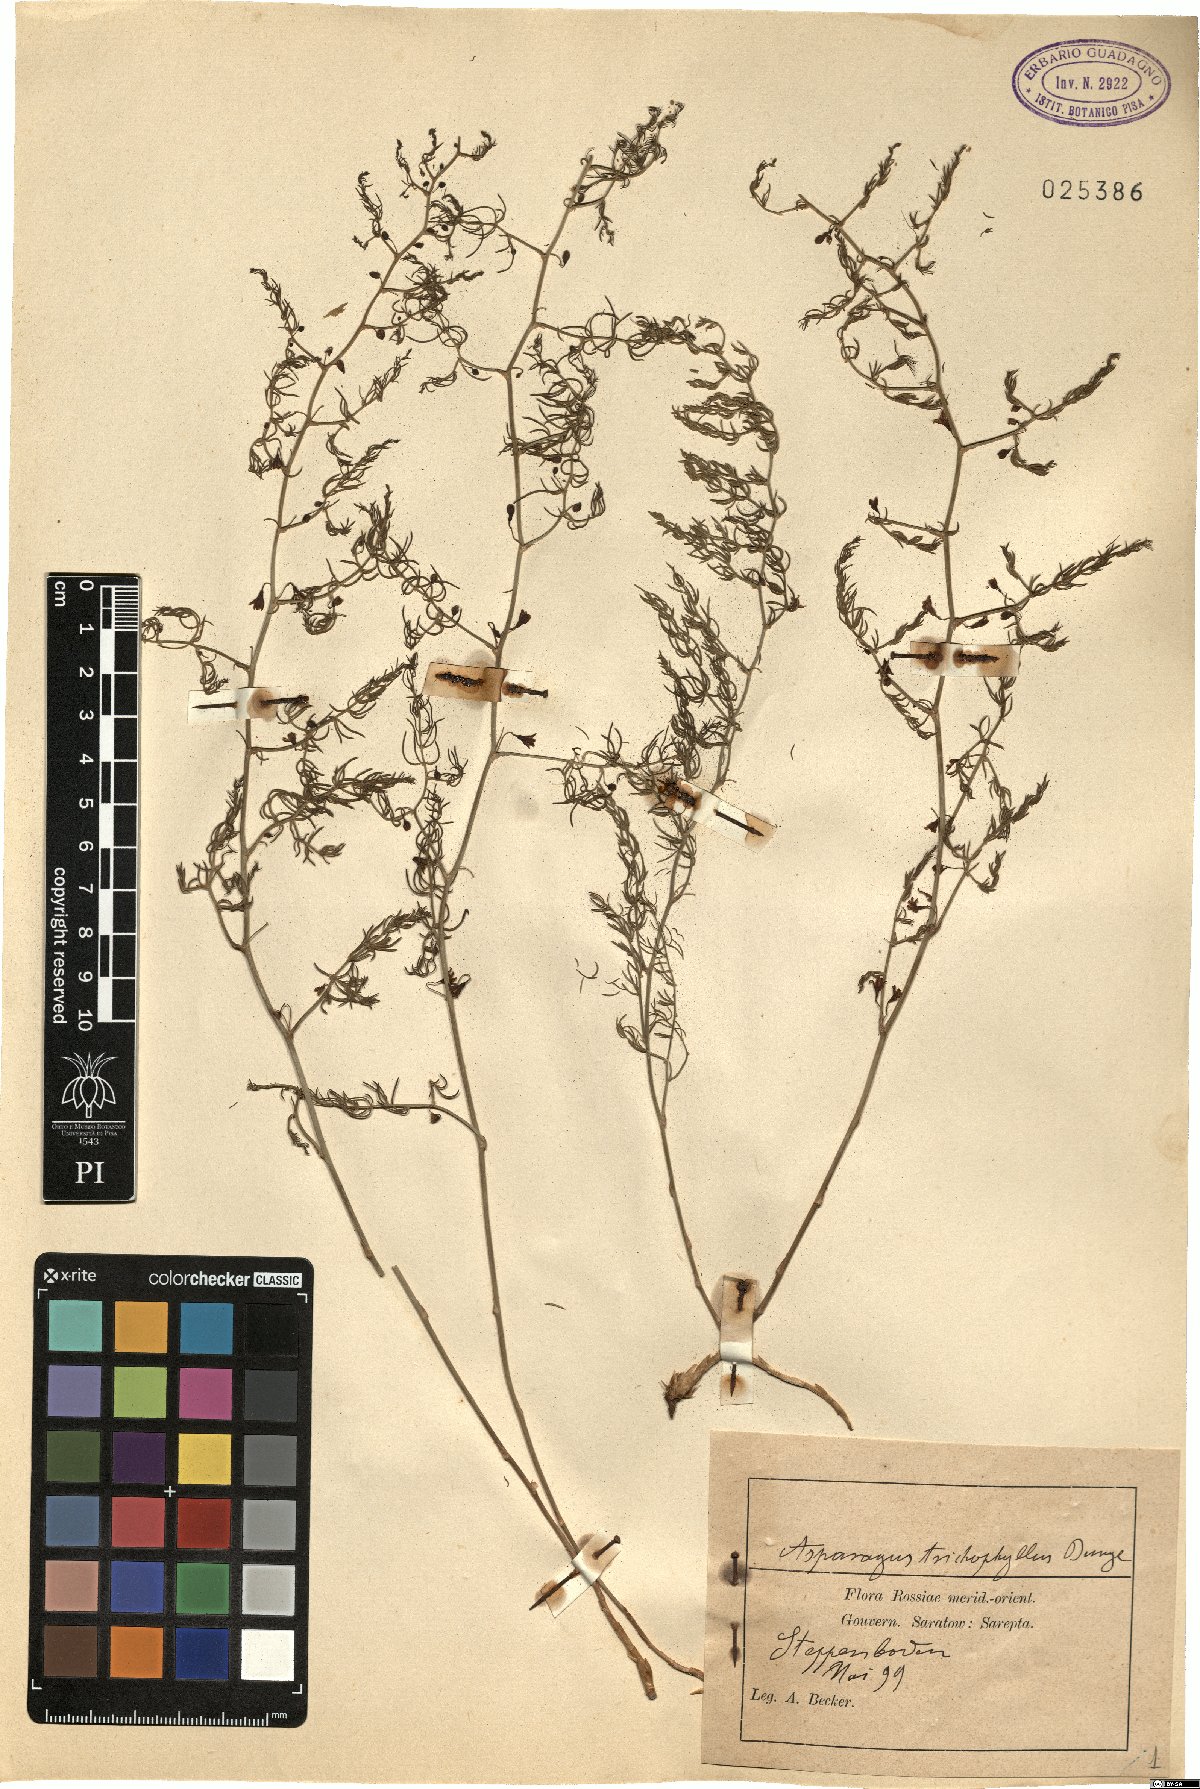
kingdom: Plantae
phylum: Tracheophyta
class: Liliopsida
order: Asparagales
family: Asparagaceae
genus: Asparagus
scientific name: Asparagus trichophyllus
